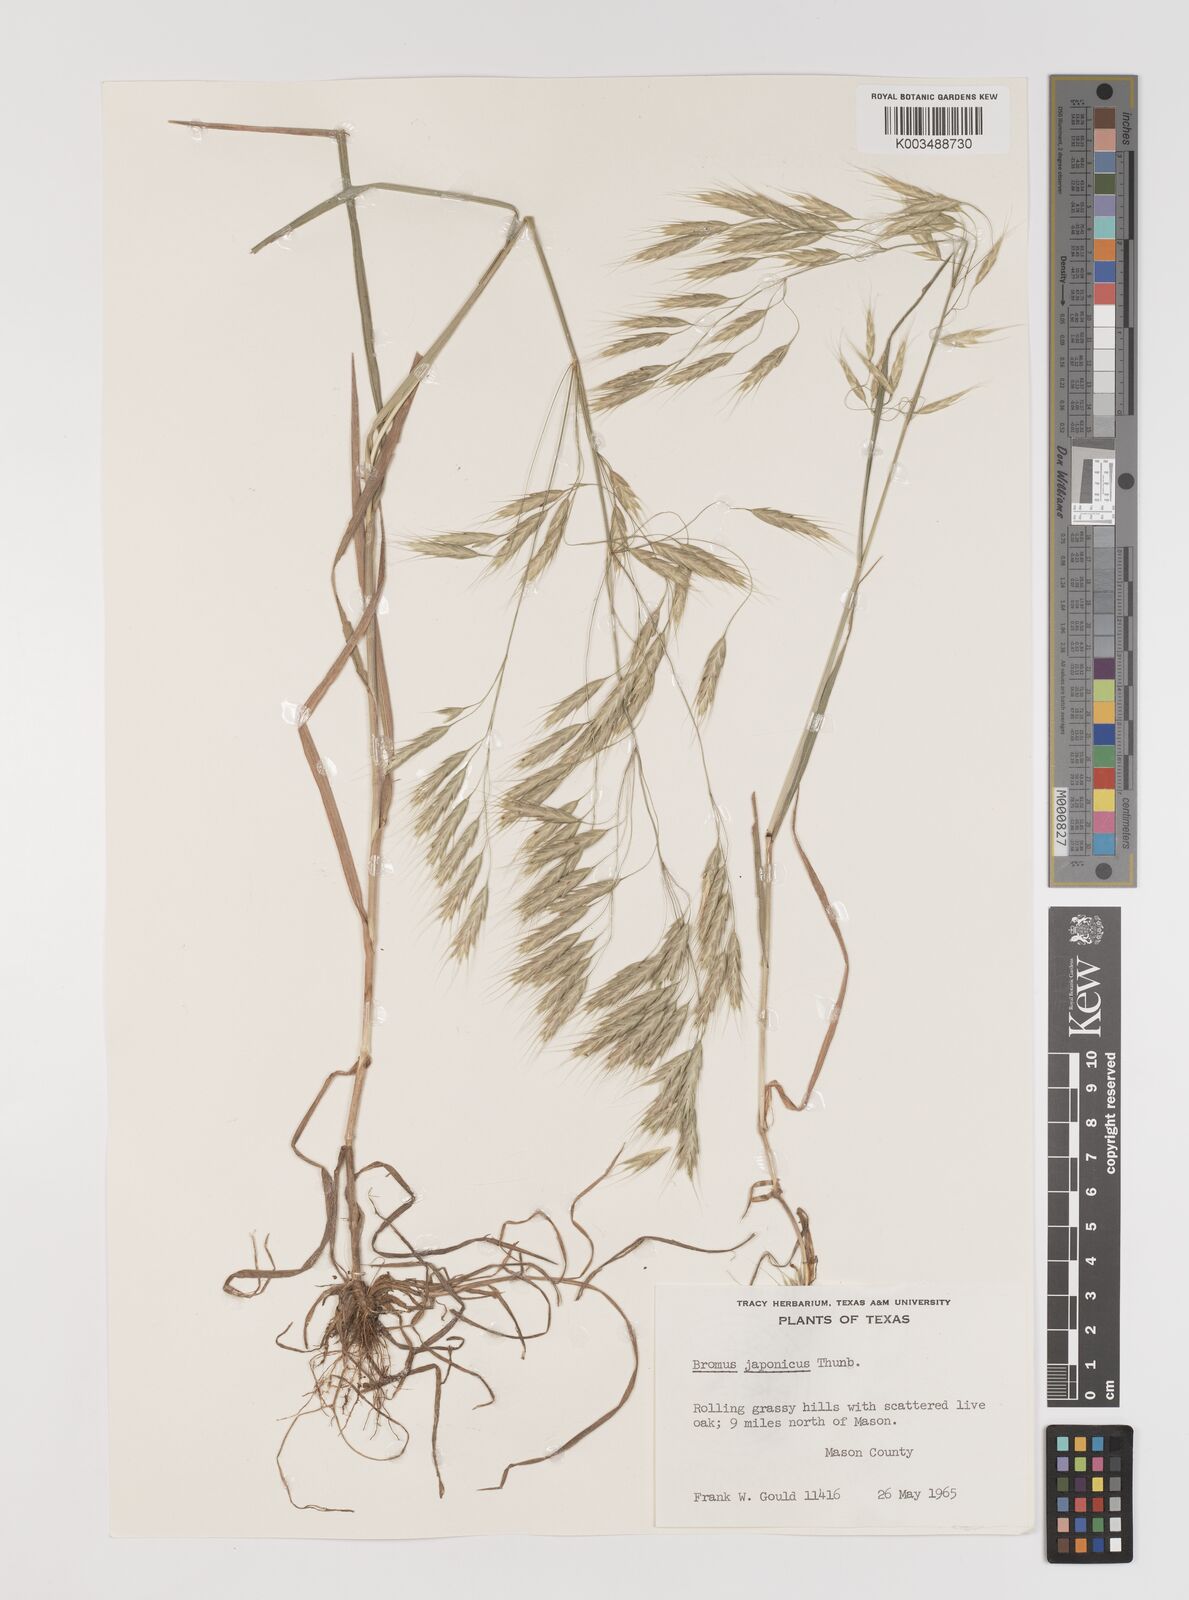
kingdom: Plantae
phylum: Tracheophyta
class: Liliopsida
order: Poales
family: Poaceae
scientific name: Poaceae
